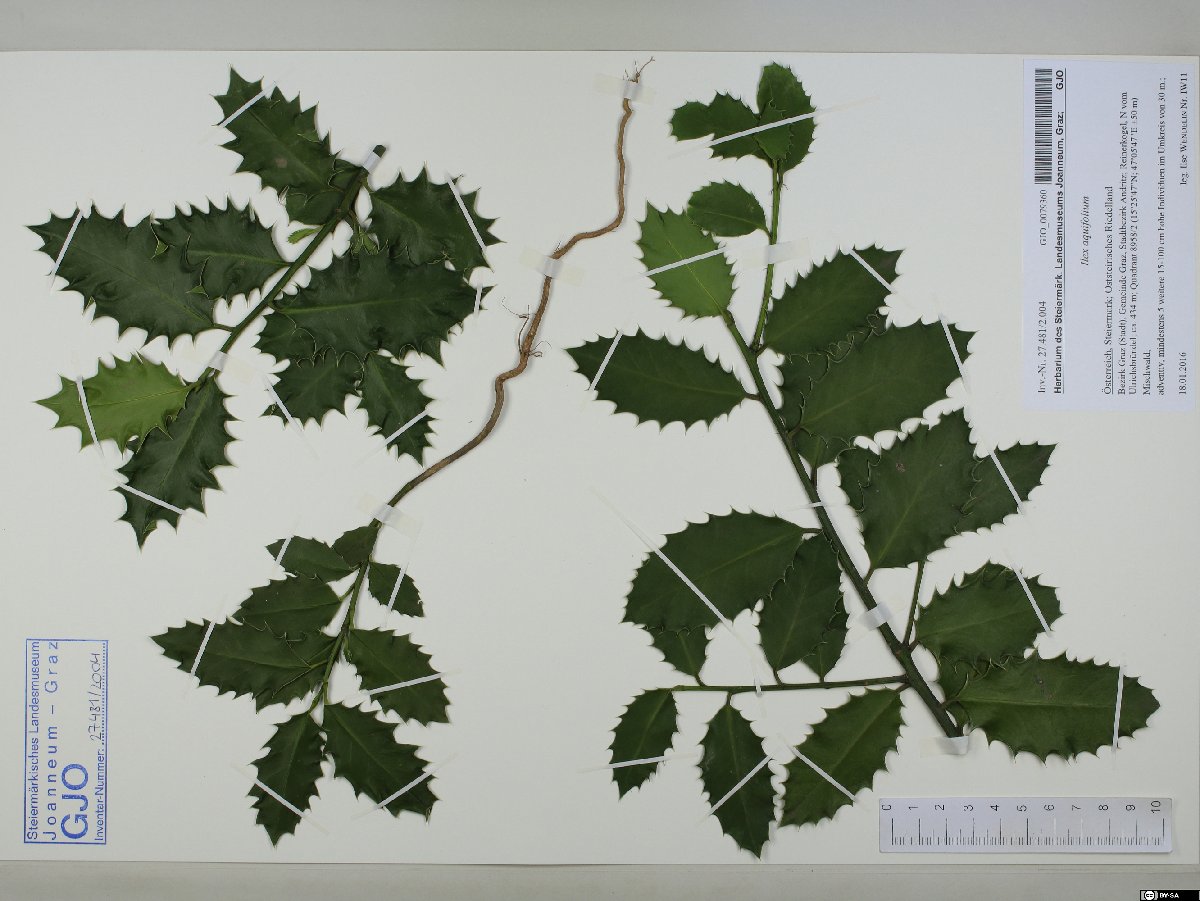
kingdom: Plantae
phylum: Tracheophyta
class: Magnoliopsida
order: Aquifoliales
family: Aquifoliaceae
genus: Ilex
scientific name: Ilex aquifolium
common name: English holly
